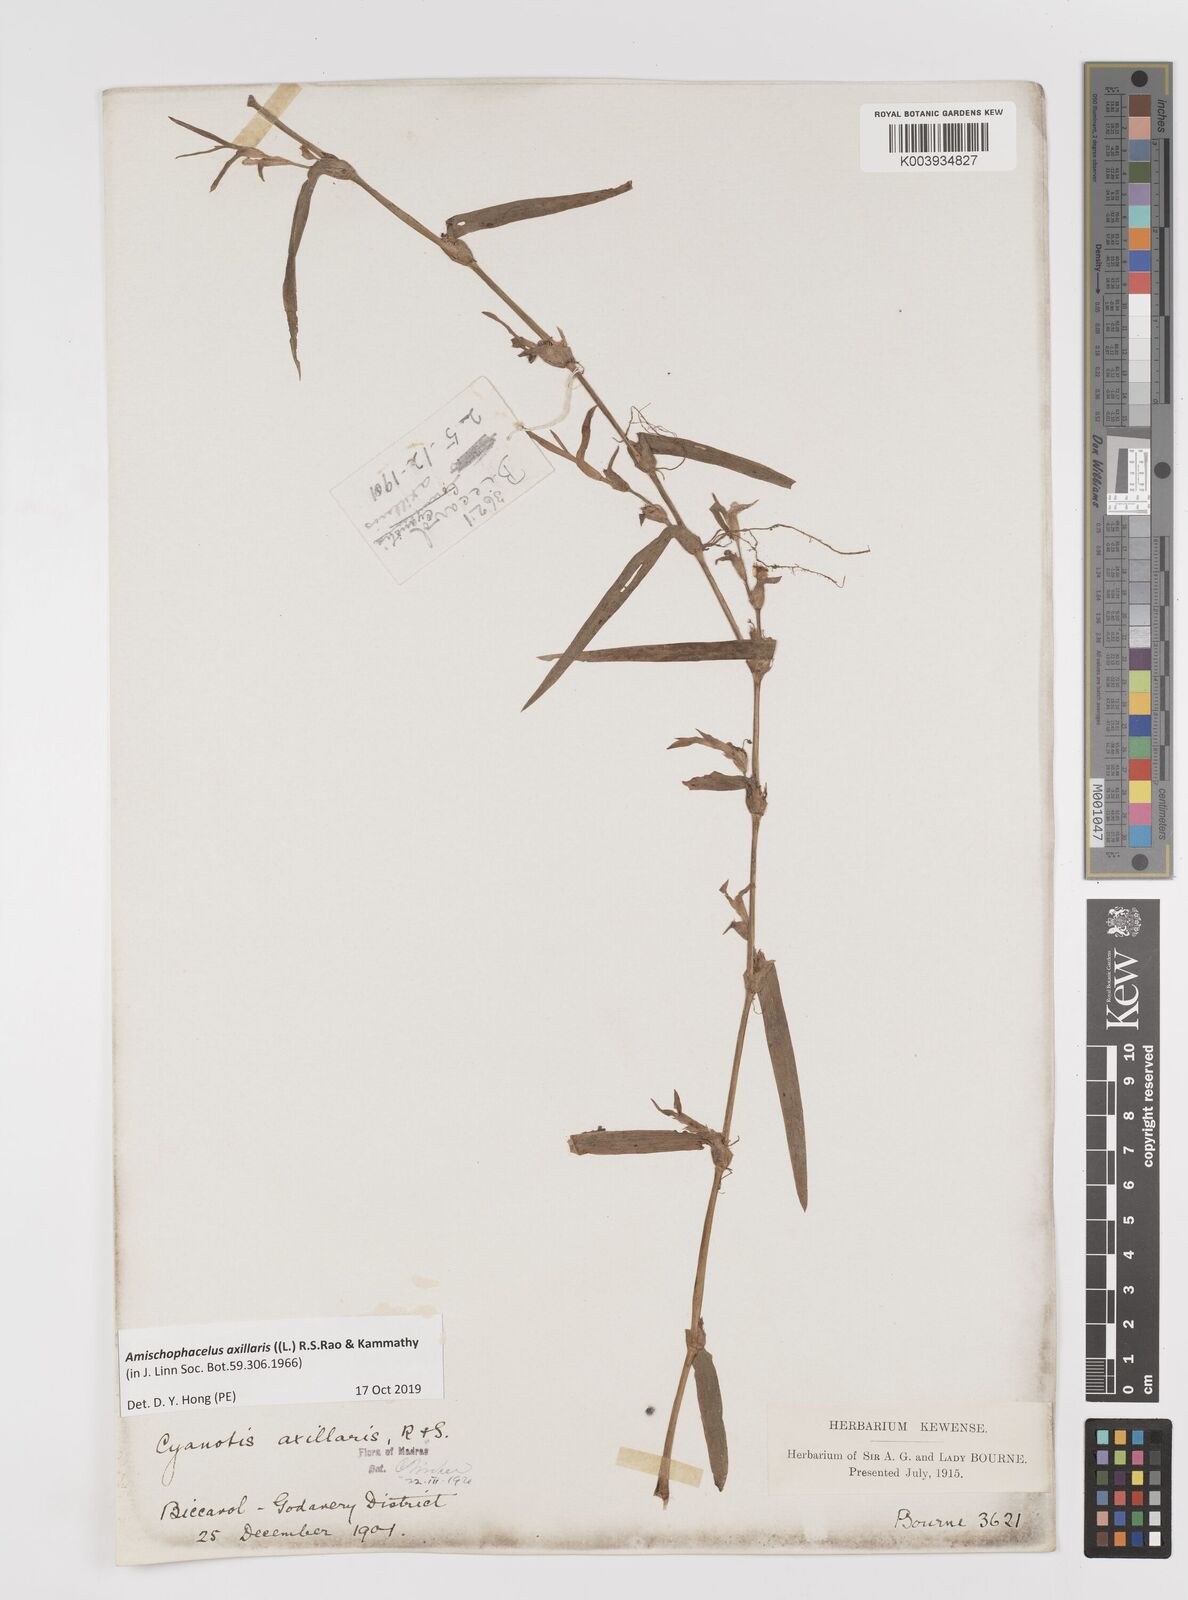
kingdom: Plantae
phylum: Tracheophyta
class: Liliopsida
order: Commelinales
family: Commelinaceae
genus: Cyanotis
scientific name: Cyanotis axillaris
